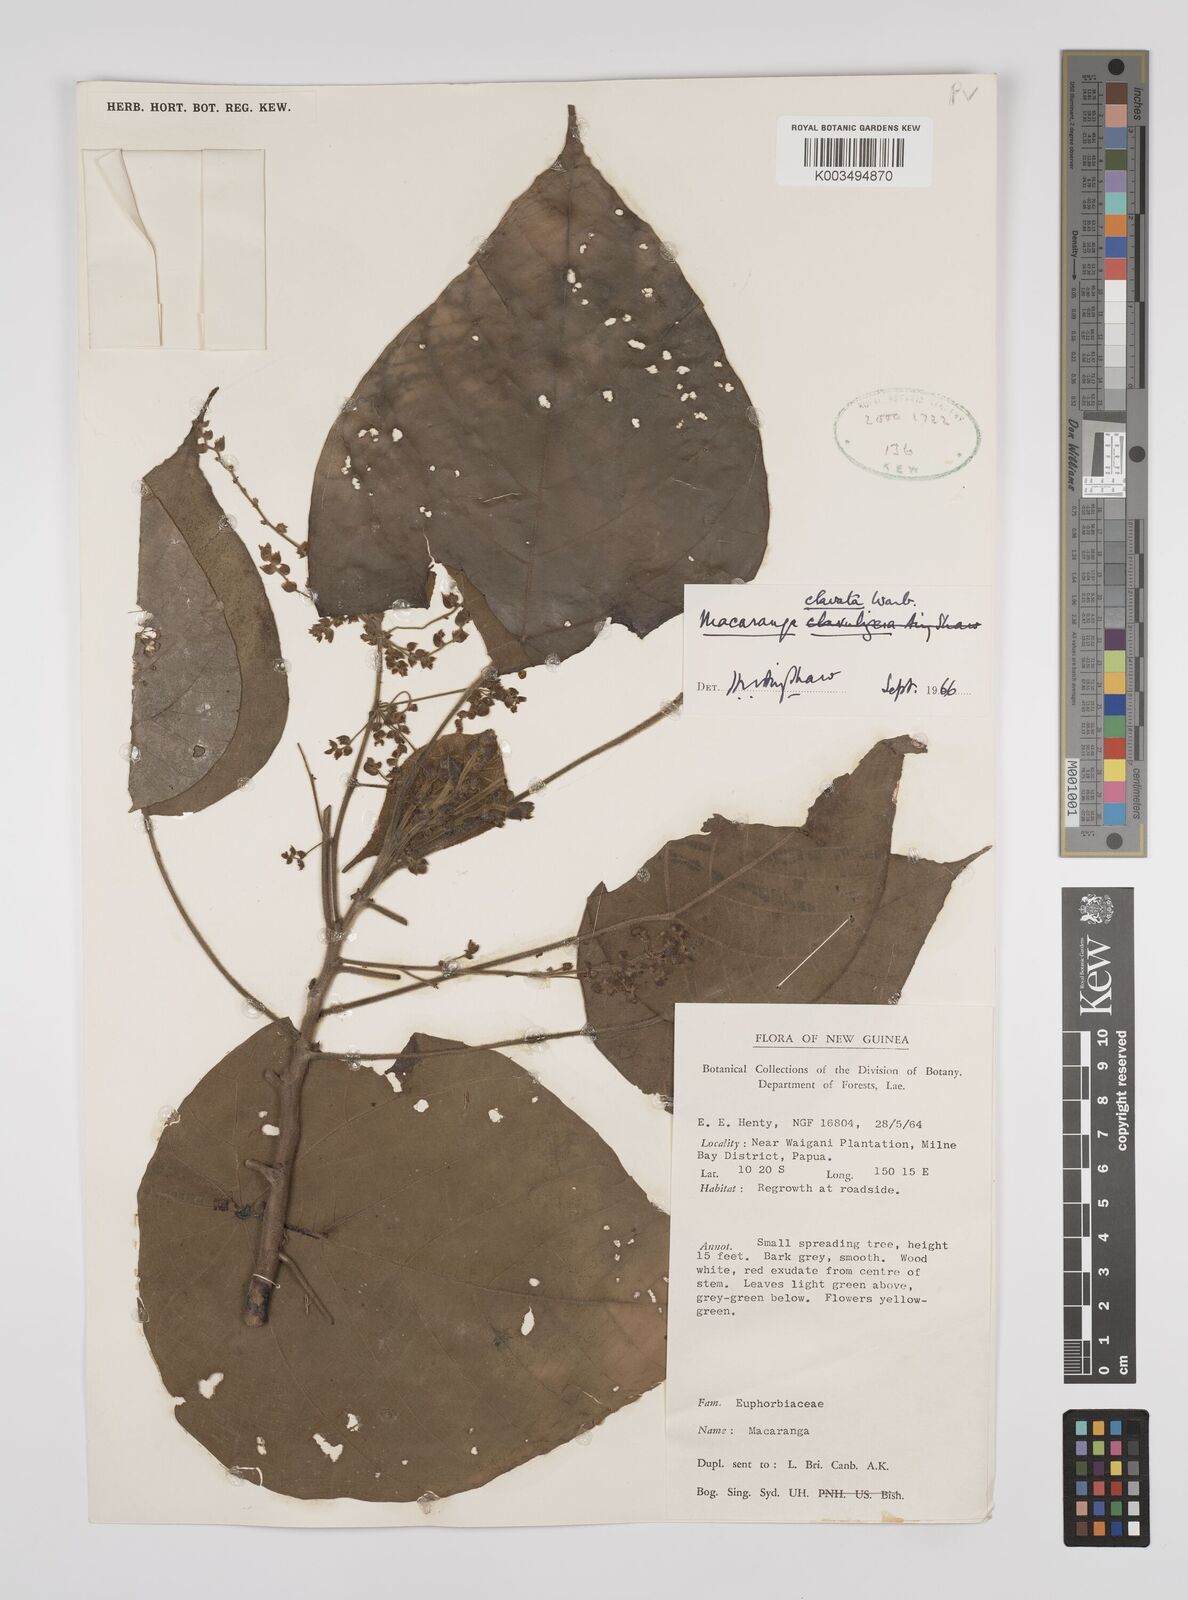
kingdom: Plantae
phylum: Tracheophyta
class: Magnoliopsida
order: Malpighiales
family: Euphorbiaceae
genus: Macaranga
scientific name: Macaranga clavata
